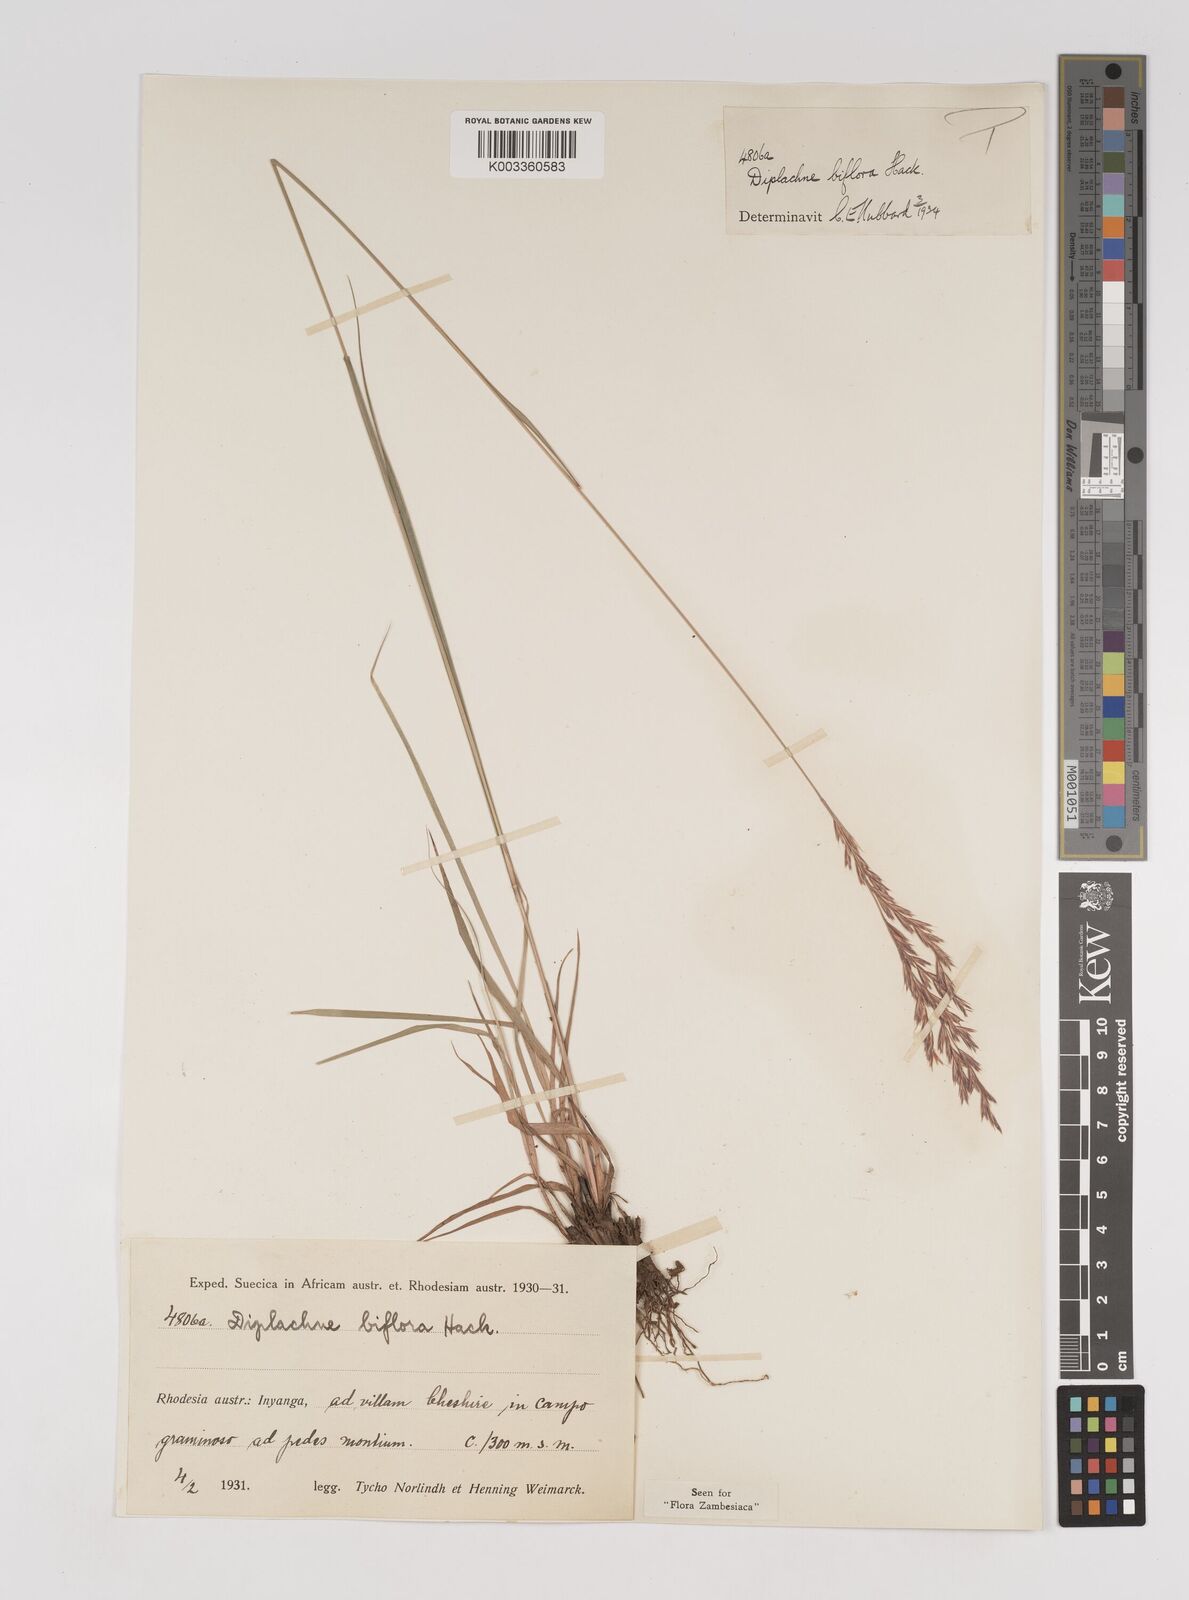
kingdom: Plantae
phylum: Tracheophyta
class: Liliopsida
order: Poales
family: Poaceae
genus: Bewsia
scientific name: Bewsia biflora
